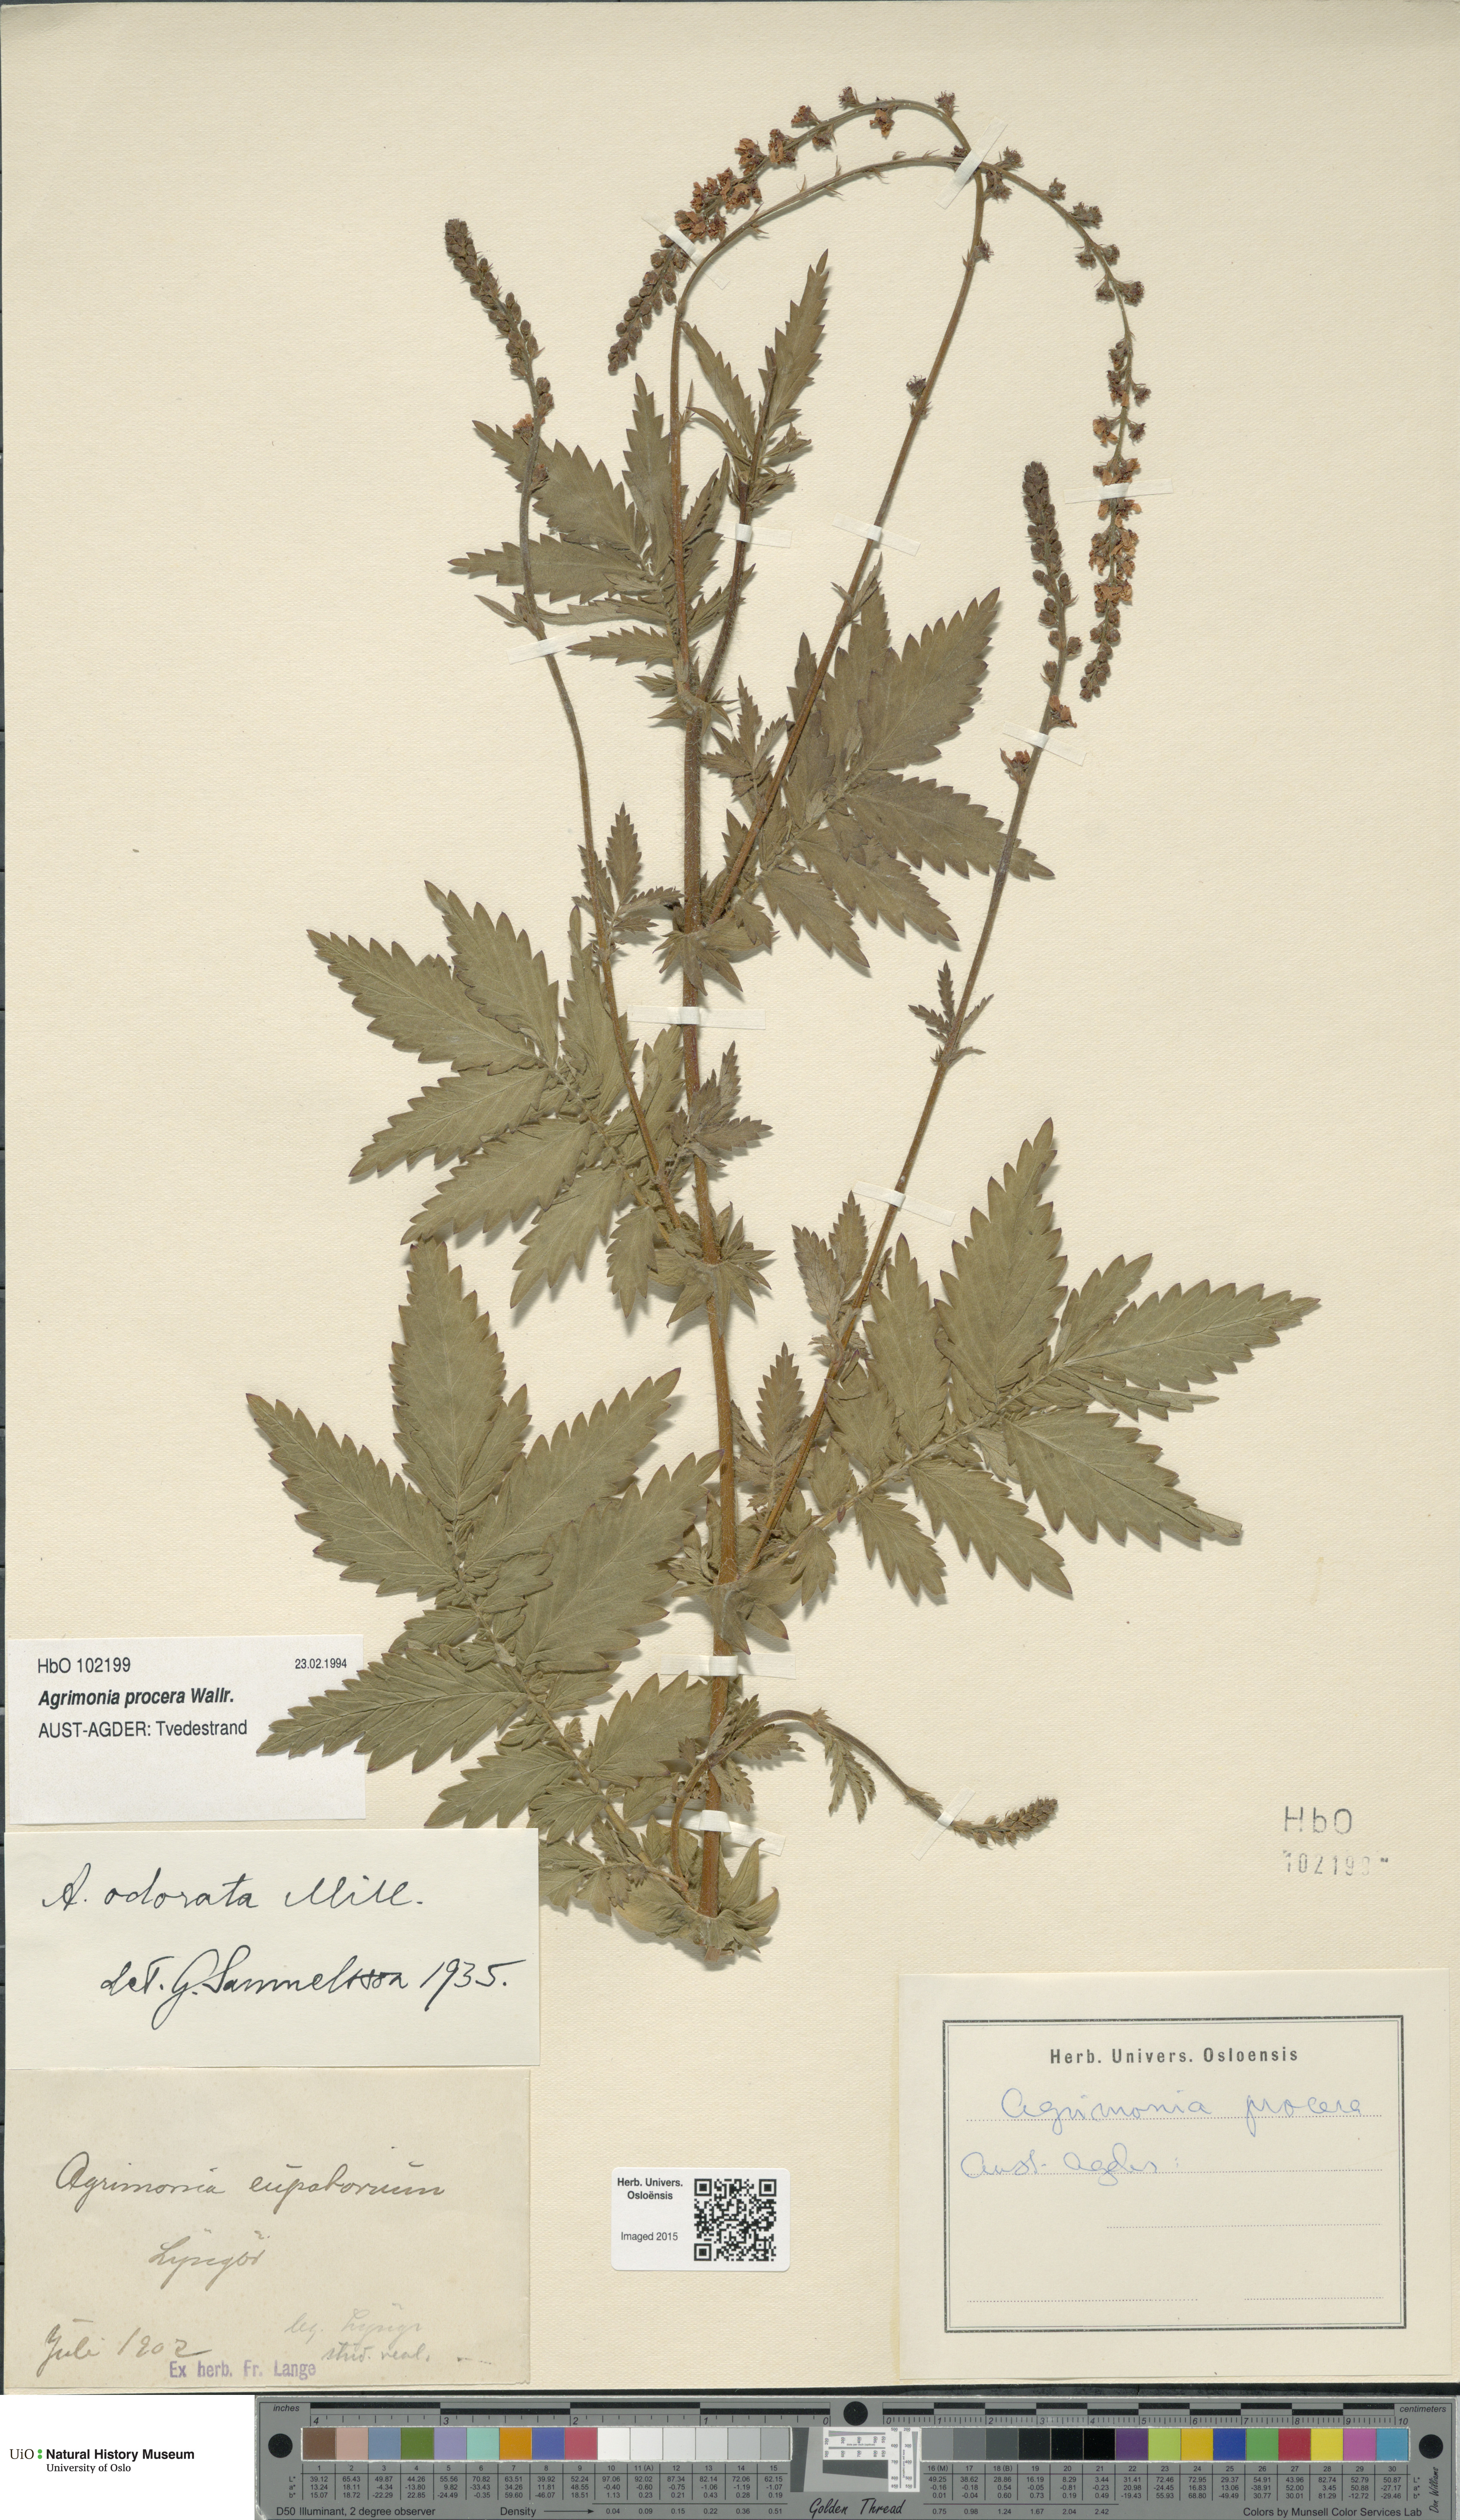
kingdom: Plantae
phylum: Tracheophyta
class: Magnoliopsida
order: Rosales
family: Rosaceae
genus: Agrimonia
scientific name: Agrimonia procera
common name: Fragrant agrimony
